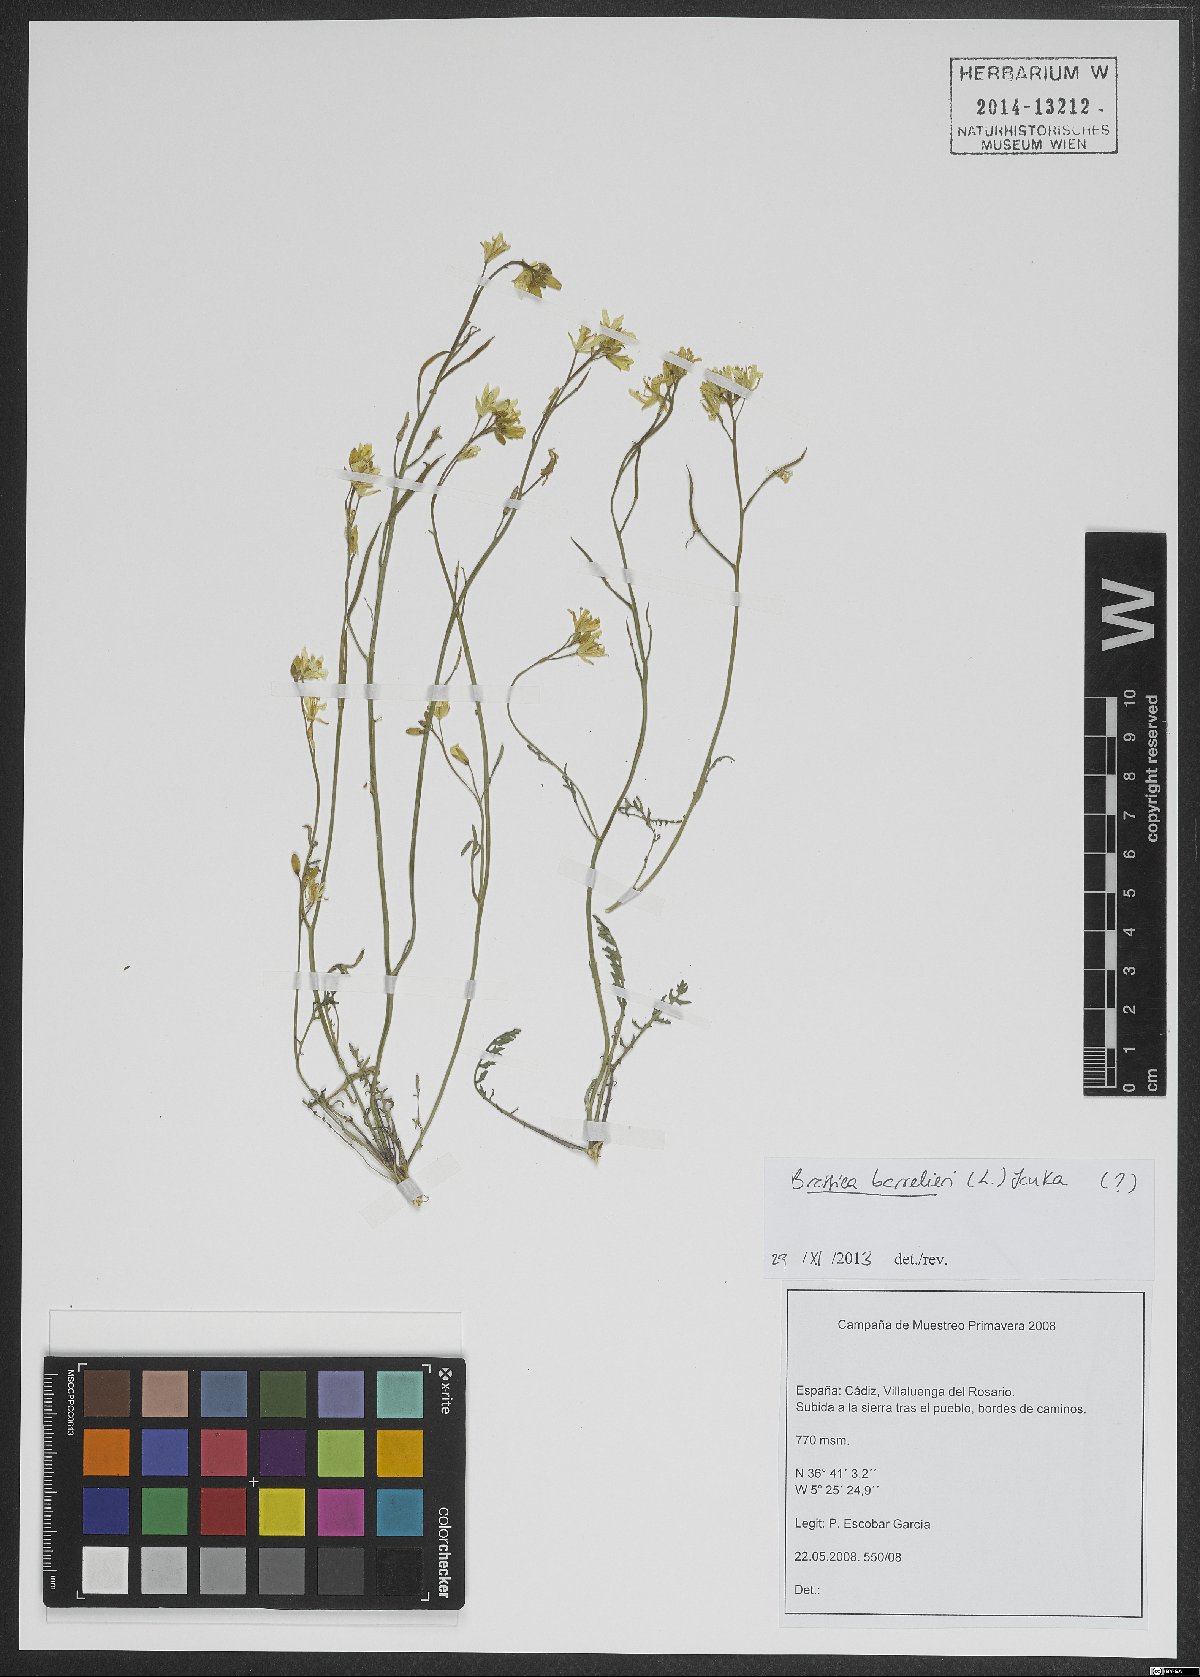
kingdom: Plantae
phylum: Tracheophyta
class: Magnoliopsida
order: Brassicales
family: Brassicaceae
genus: Brassica
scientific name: Brassica barrelieri
